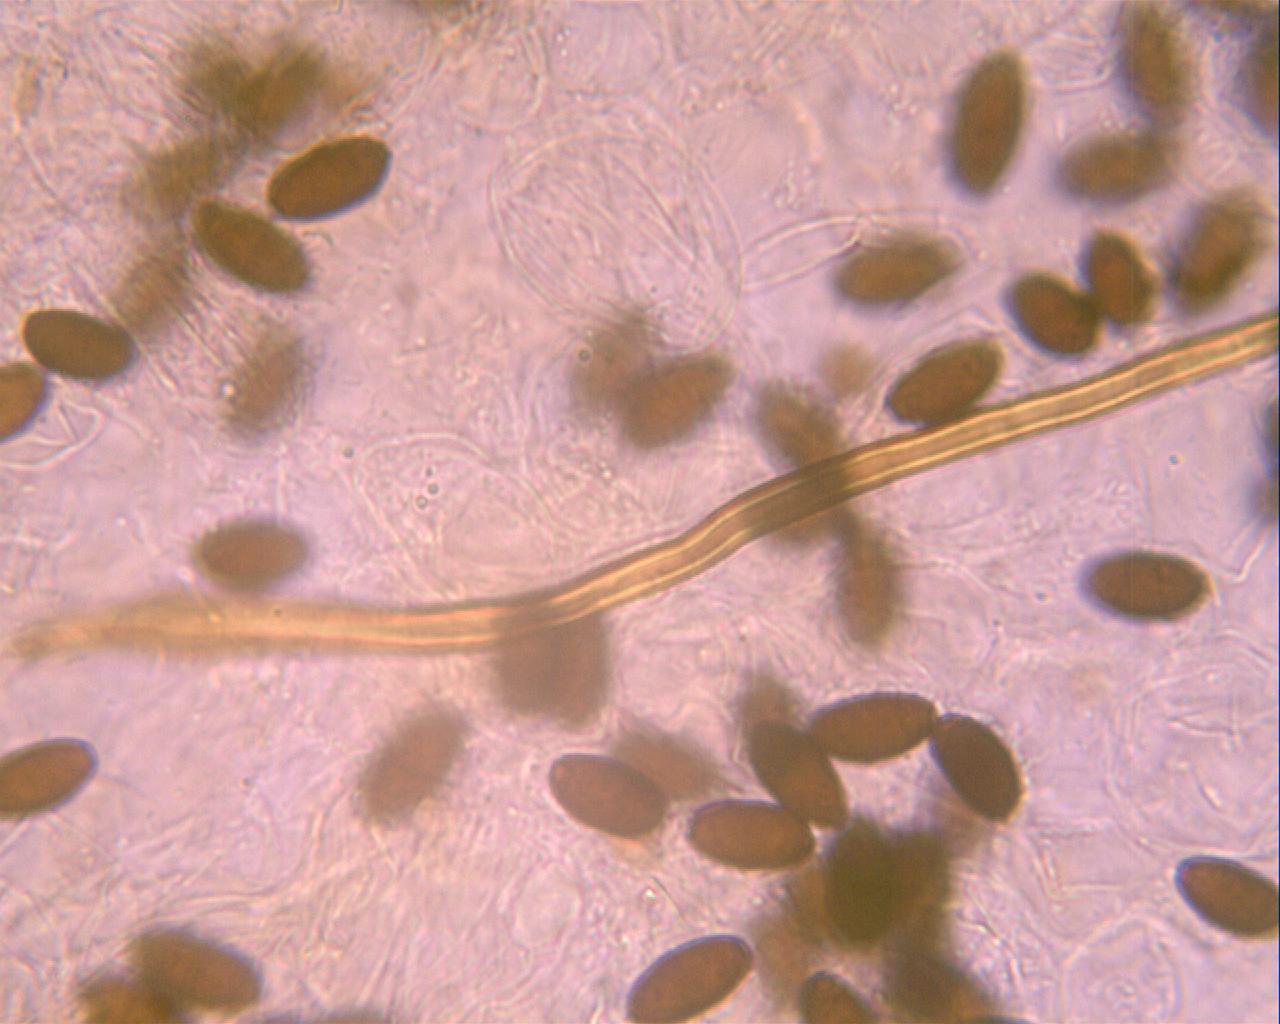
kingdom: Fungi
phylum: Basidiomycota
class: Agaricomycetes
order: Agaricales
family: Psathyrellaceae
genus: Parasola
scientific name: Parasola conopilea
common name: kegle-hjulhat
